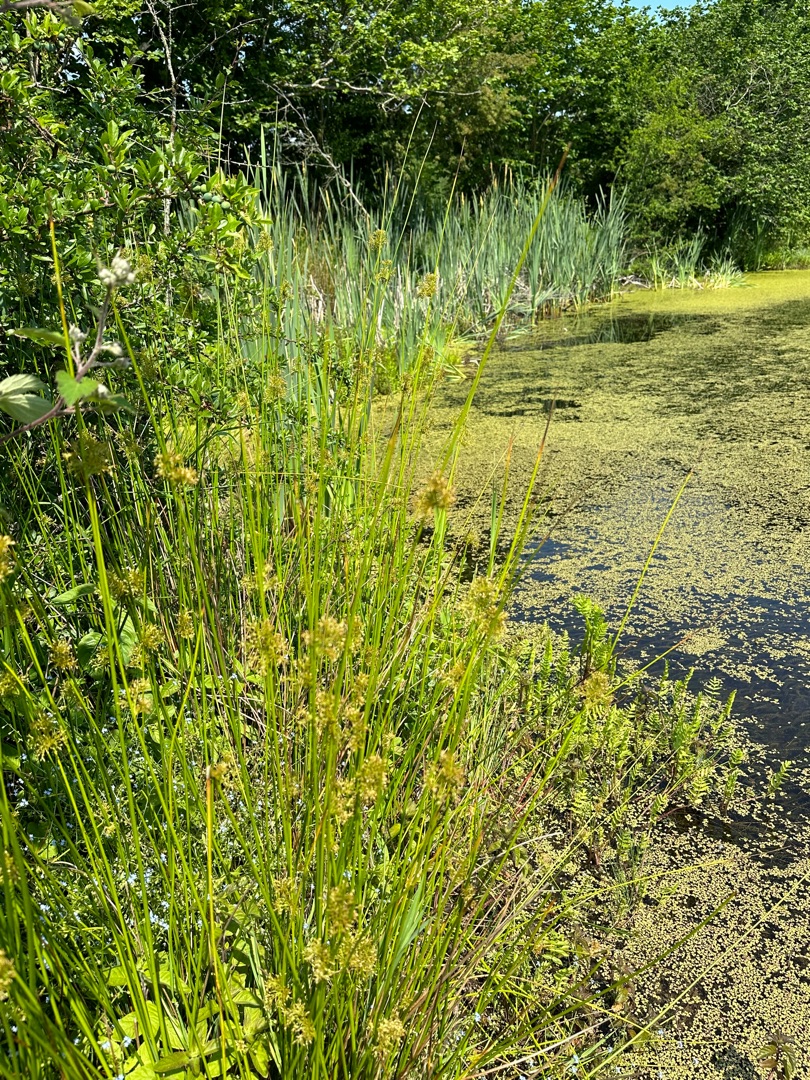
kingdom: Plantae
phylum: Tracheophyta
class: Liliopsida
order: Poales
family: Juncaceae
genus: Juncus
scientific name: Juncus effusus
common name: Lyse-siv
